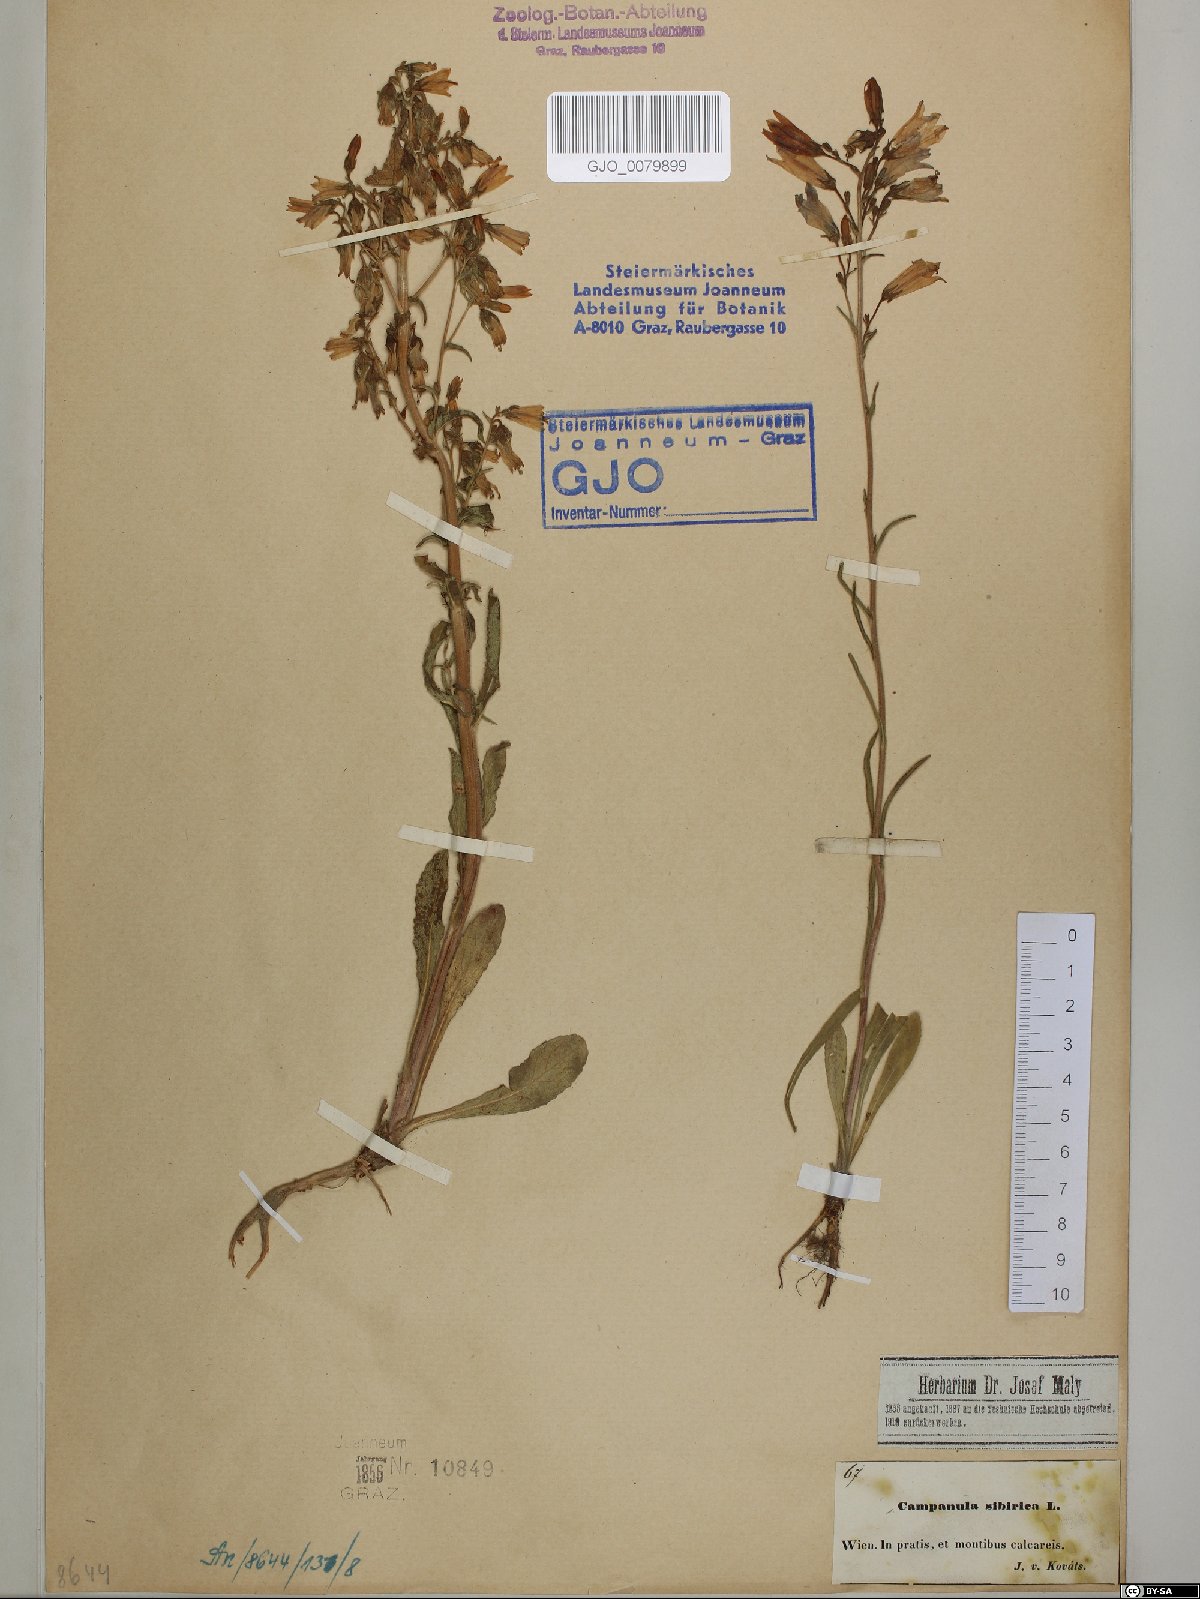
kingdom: Plantae
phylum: Tracheophyta
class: Magnoliopsida
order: Asterales
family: Campanulaceae
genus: Campanula
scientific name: Campanula sibirica
